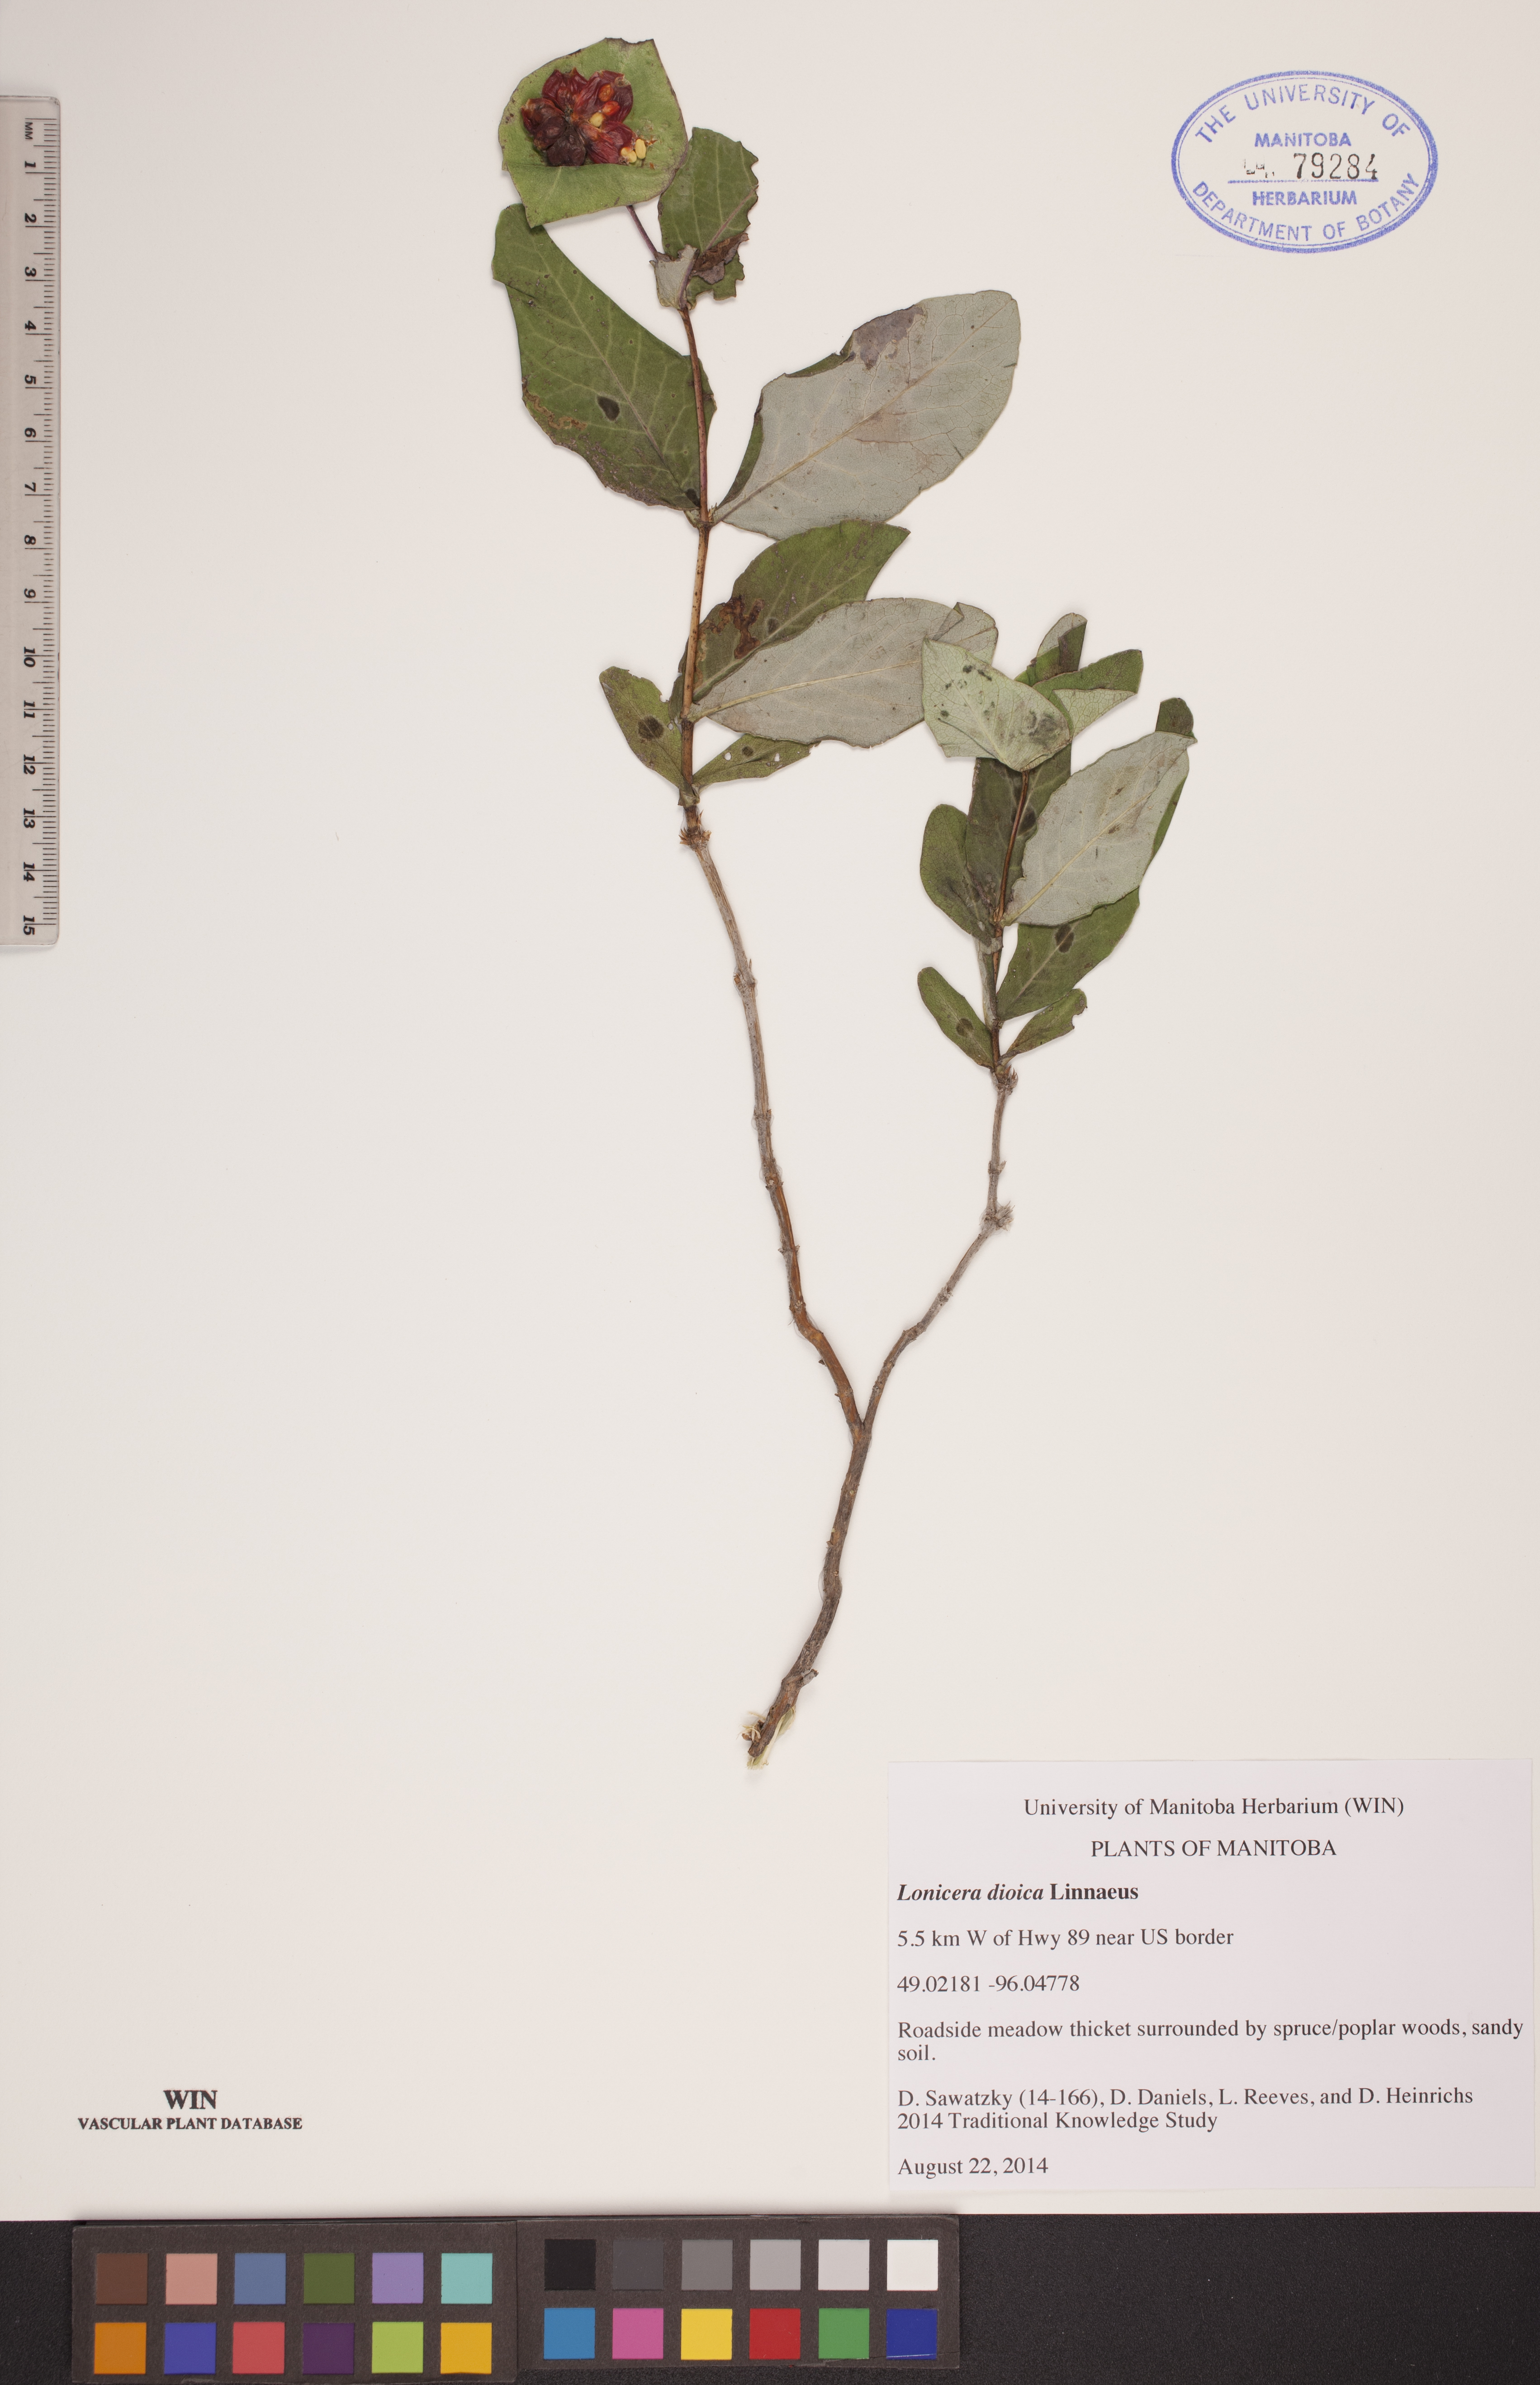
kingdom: Plantae
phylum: Tracheophyta
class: Magnoliopsida
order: Dipsacales
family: Caprifoliaceae
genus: Lonicera
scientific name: Lonicera dioica
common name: Limber honeysuckle
